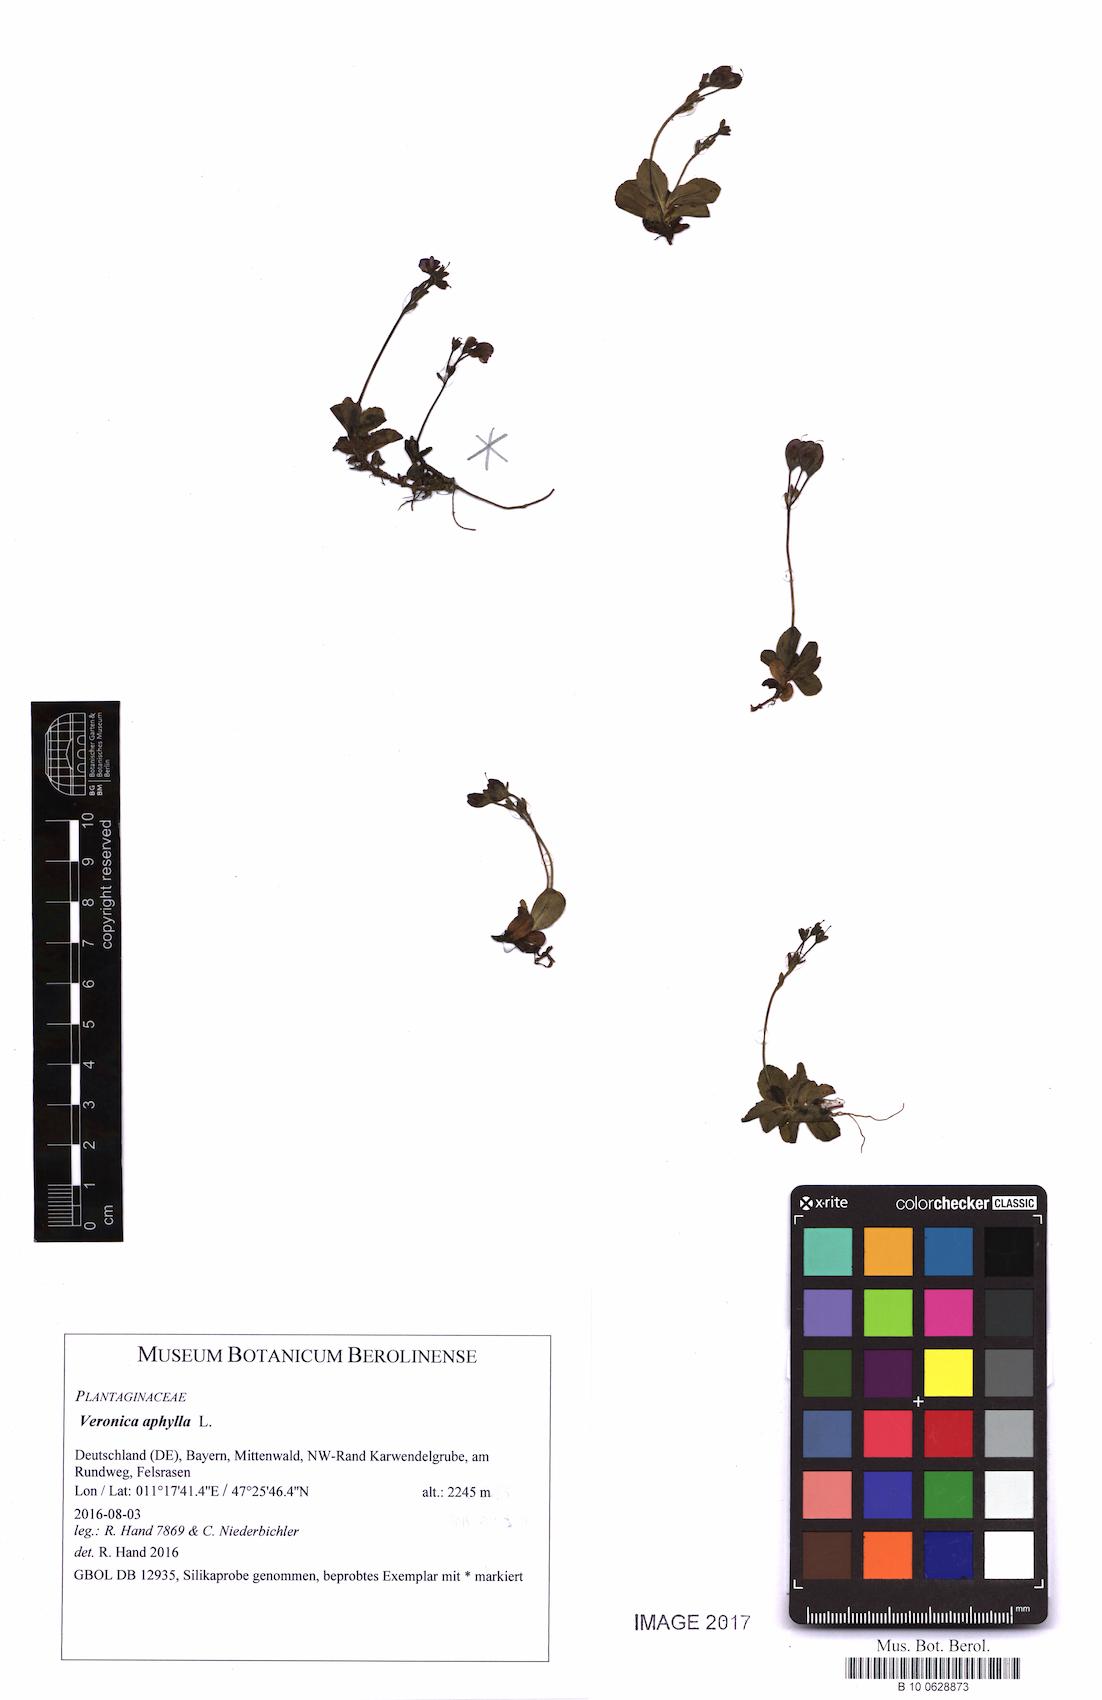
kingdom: Plantae
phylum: Tracheophyta
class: Magnoliopsida
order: Lamiales
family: Plantaginaceae
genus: Veronica
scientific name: Veronica aphylla
